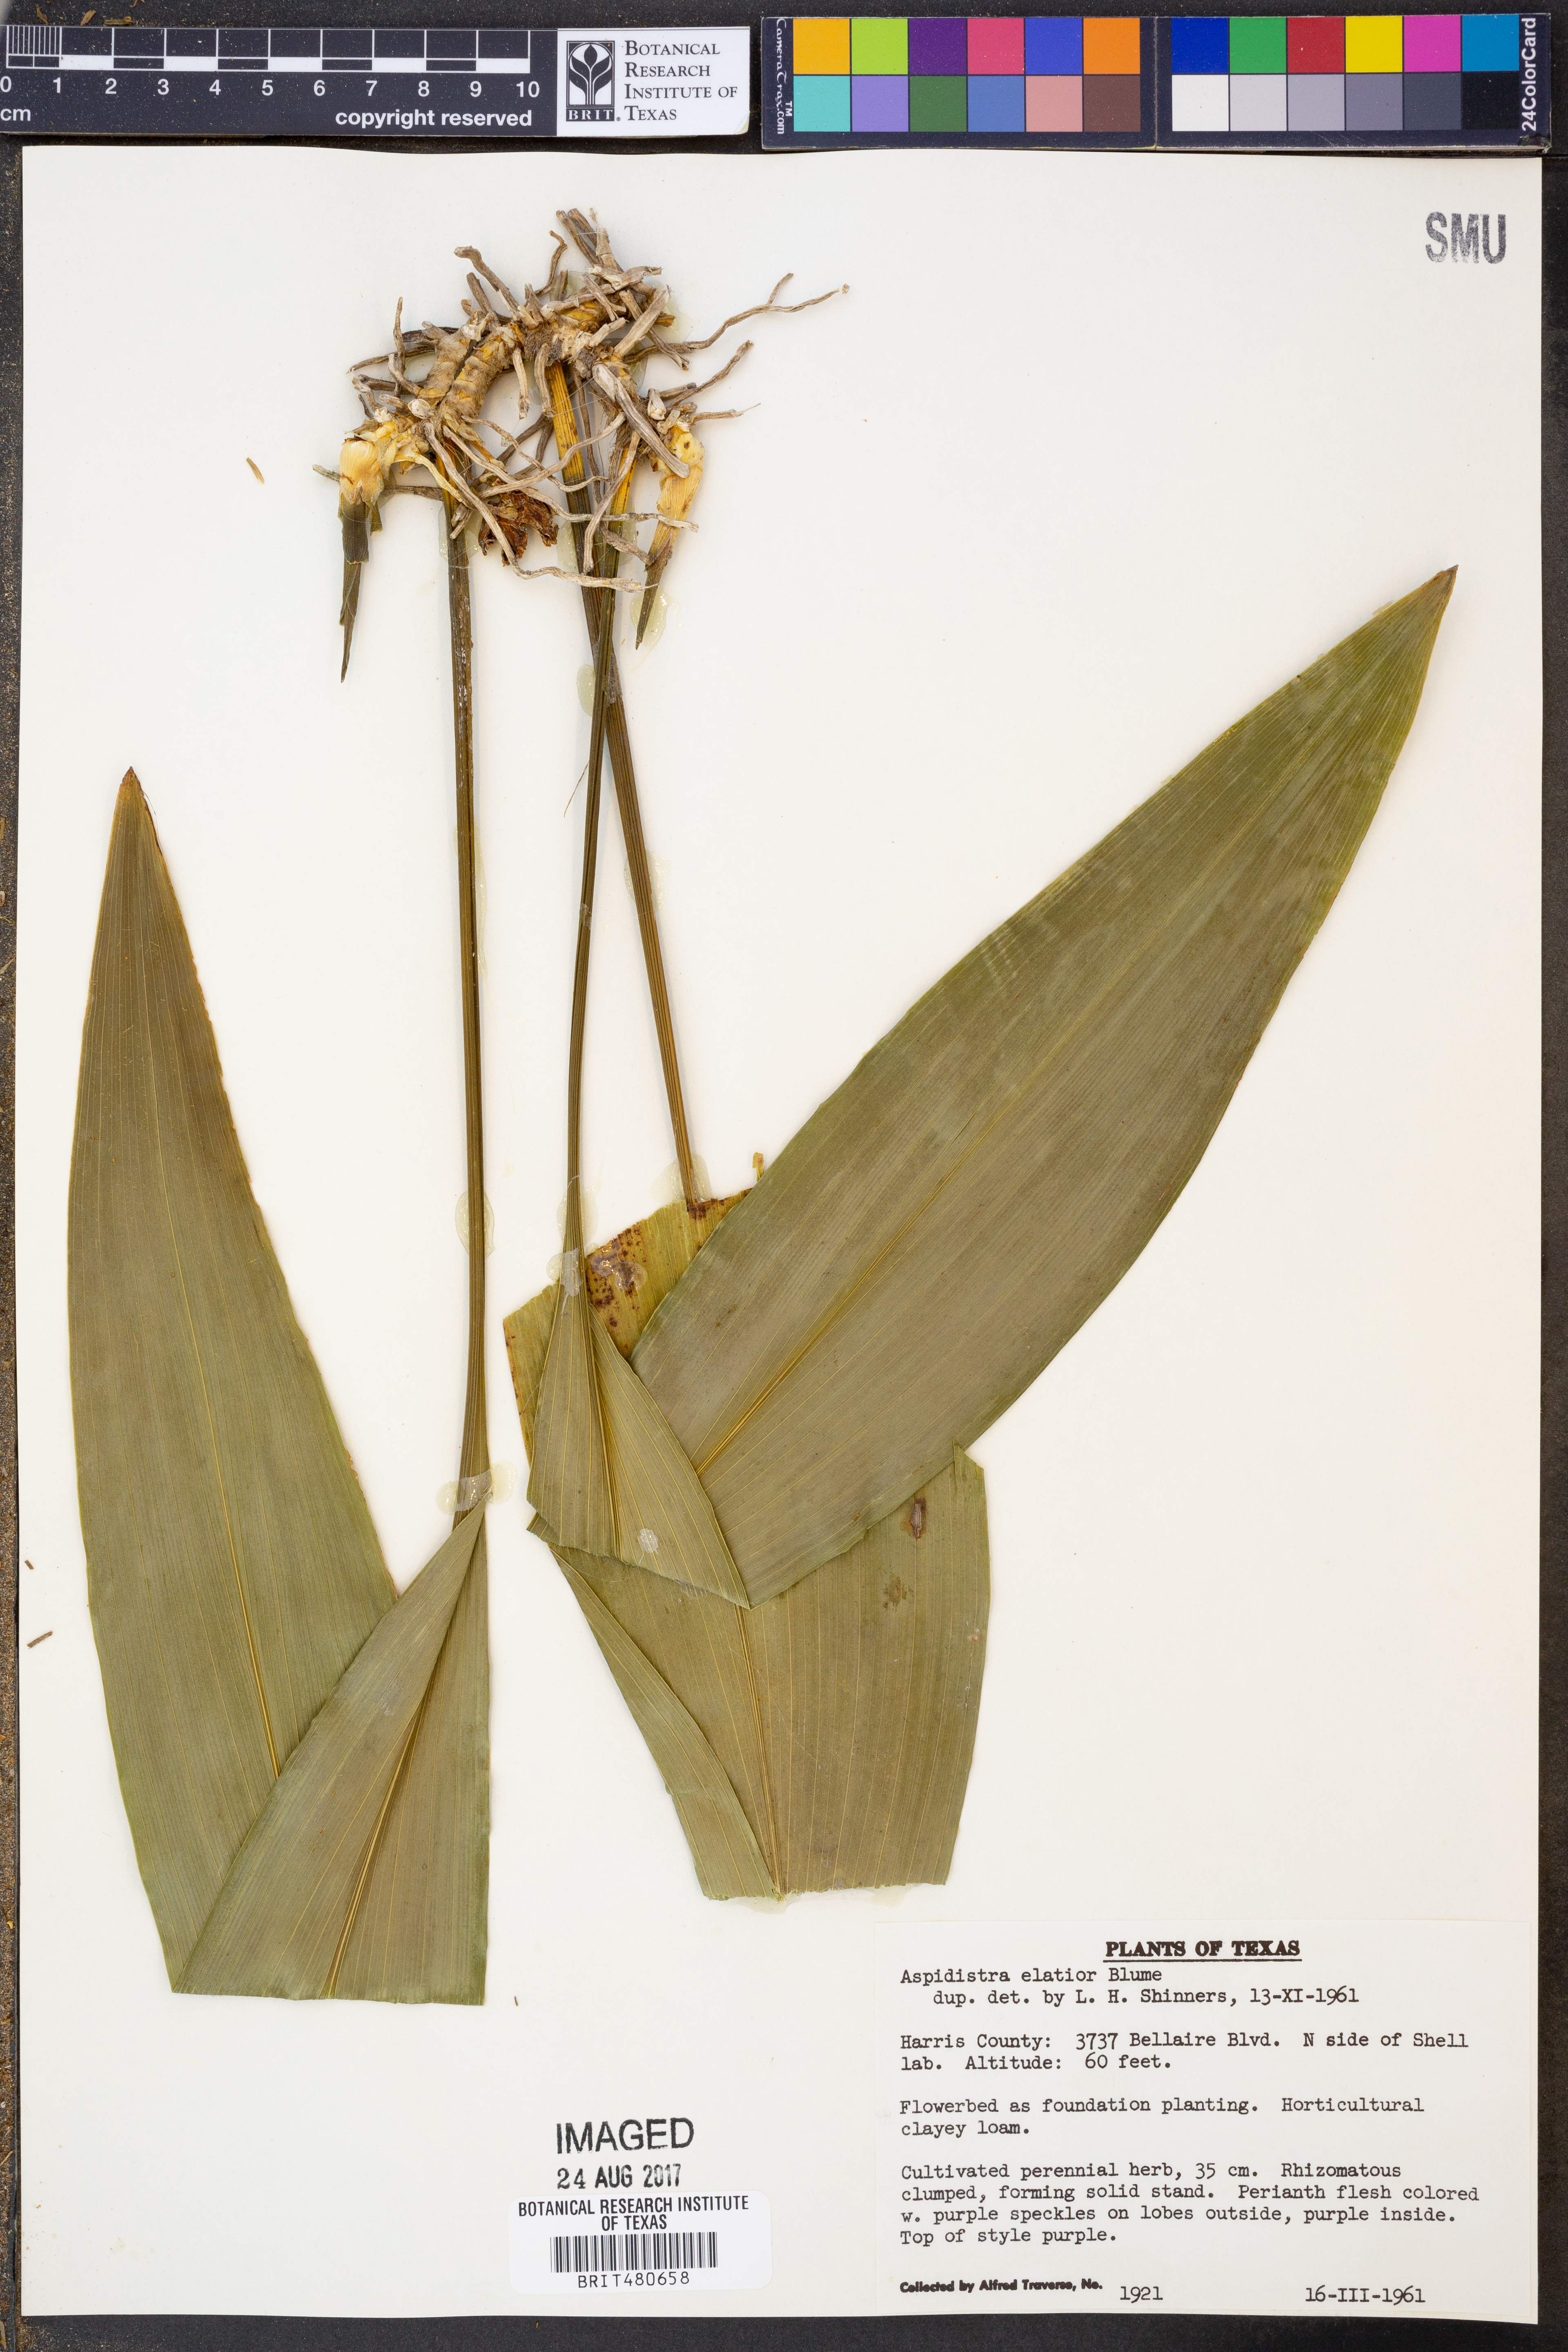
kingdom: Plantae
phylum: Tracheophyta
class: Liliopsida
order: Asparagales
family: Asparagaceae
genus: Aspidistra
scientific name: Aspidistra elatior
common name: Cast-iron-plant
